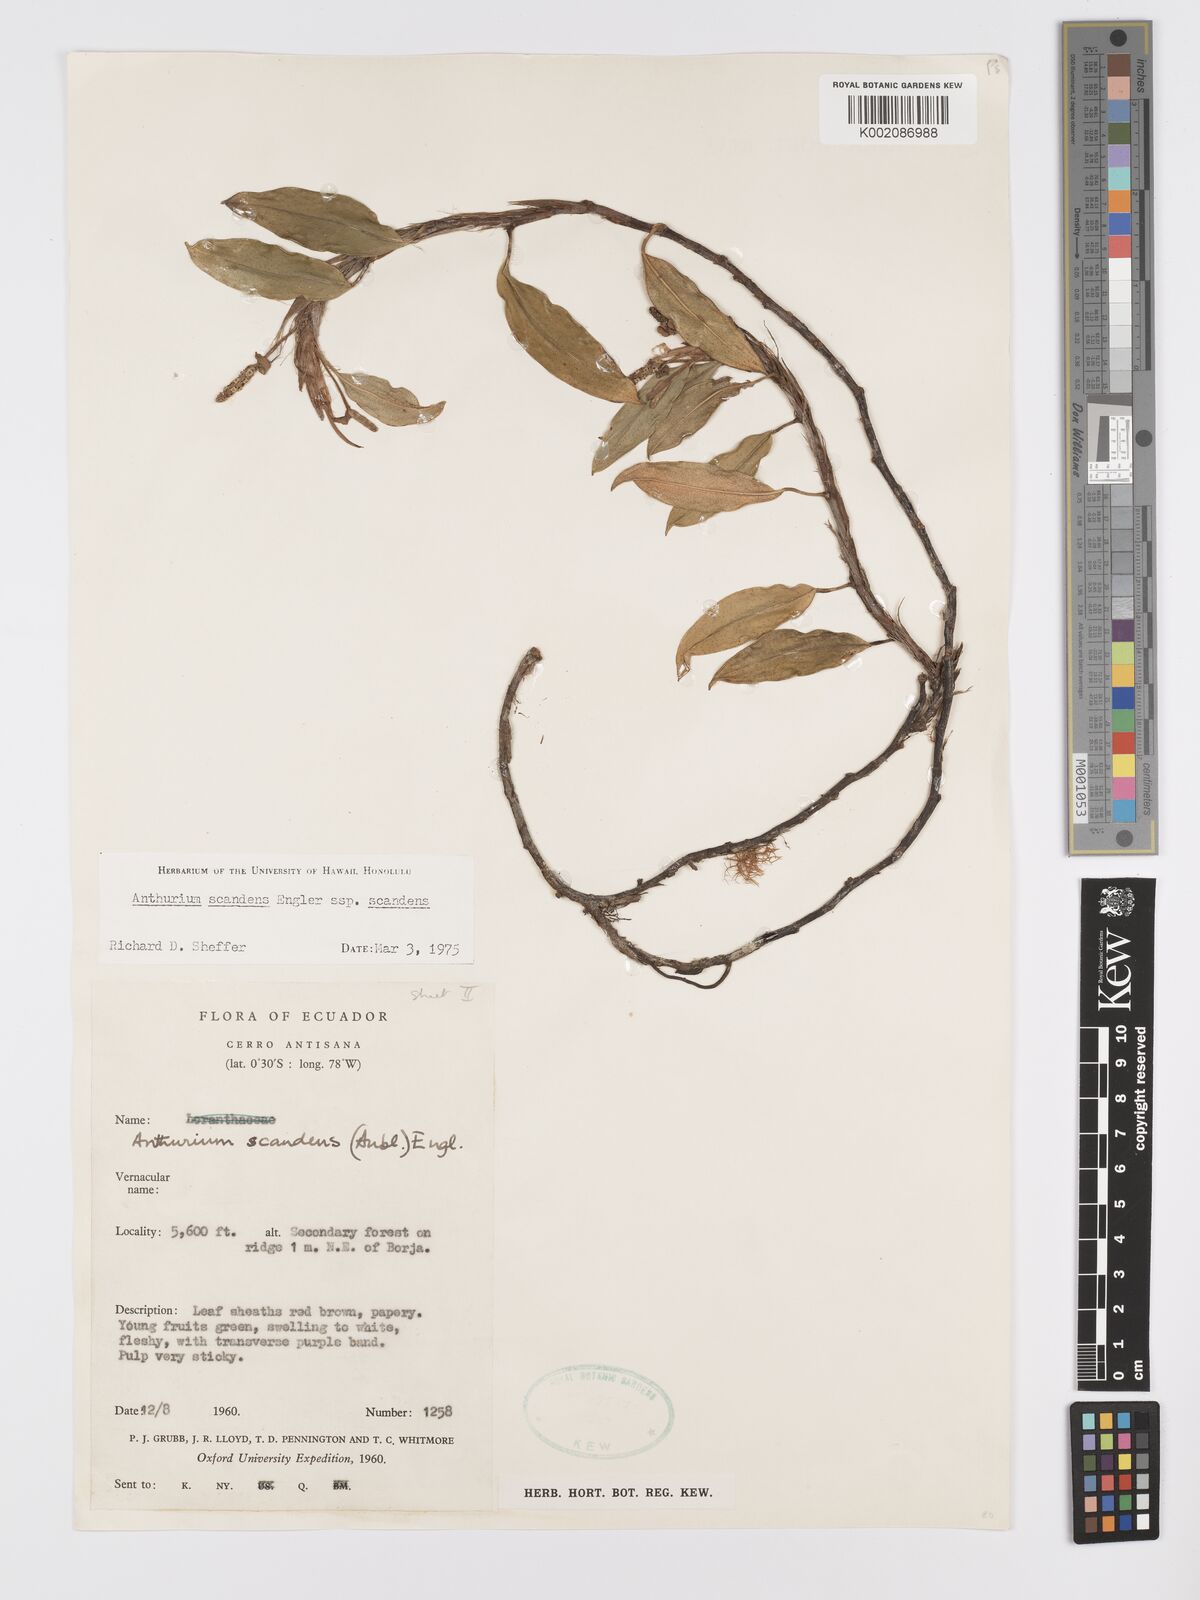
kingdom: Plantae
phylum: Tracheophyta
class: Liliopsida
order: Alismatales
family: Araceae
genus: Anthurium
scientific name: Anthurium scandens
